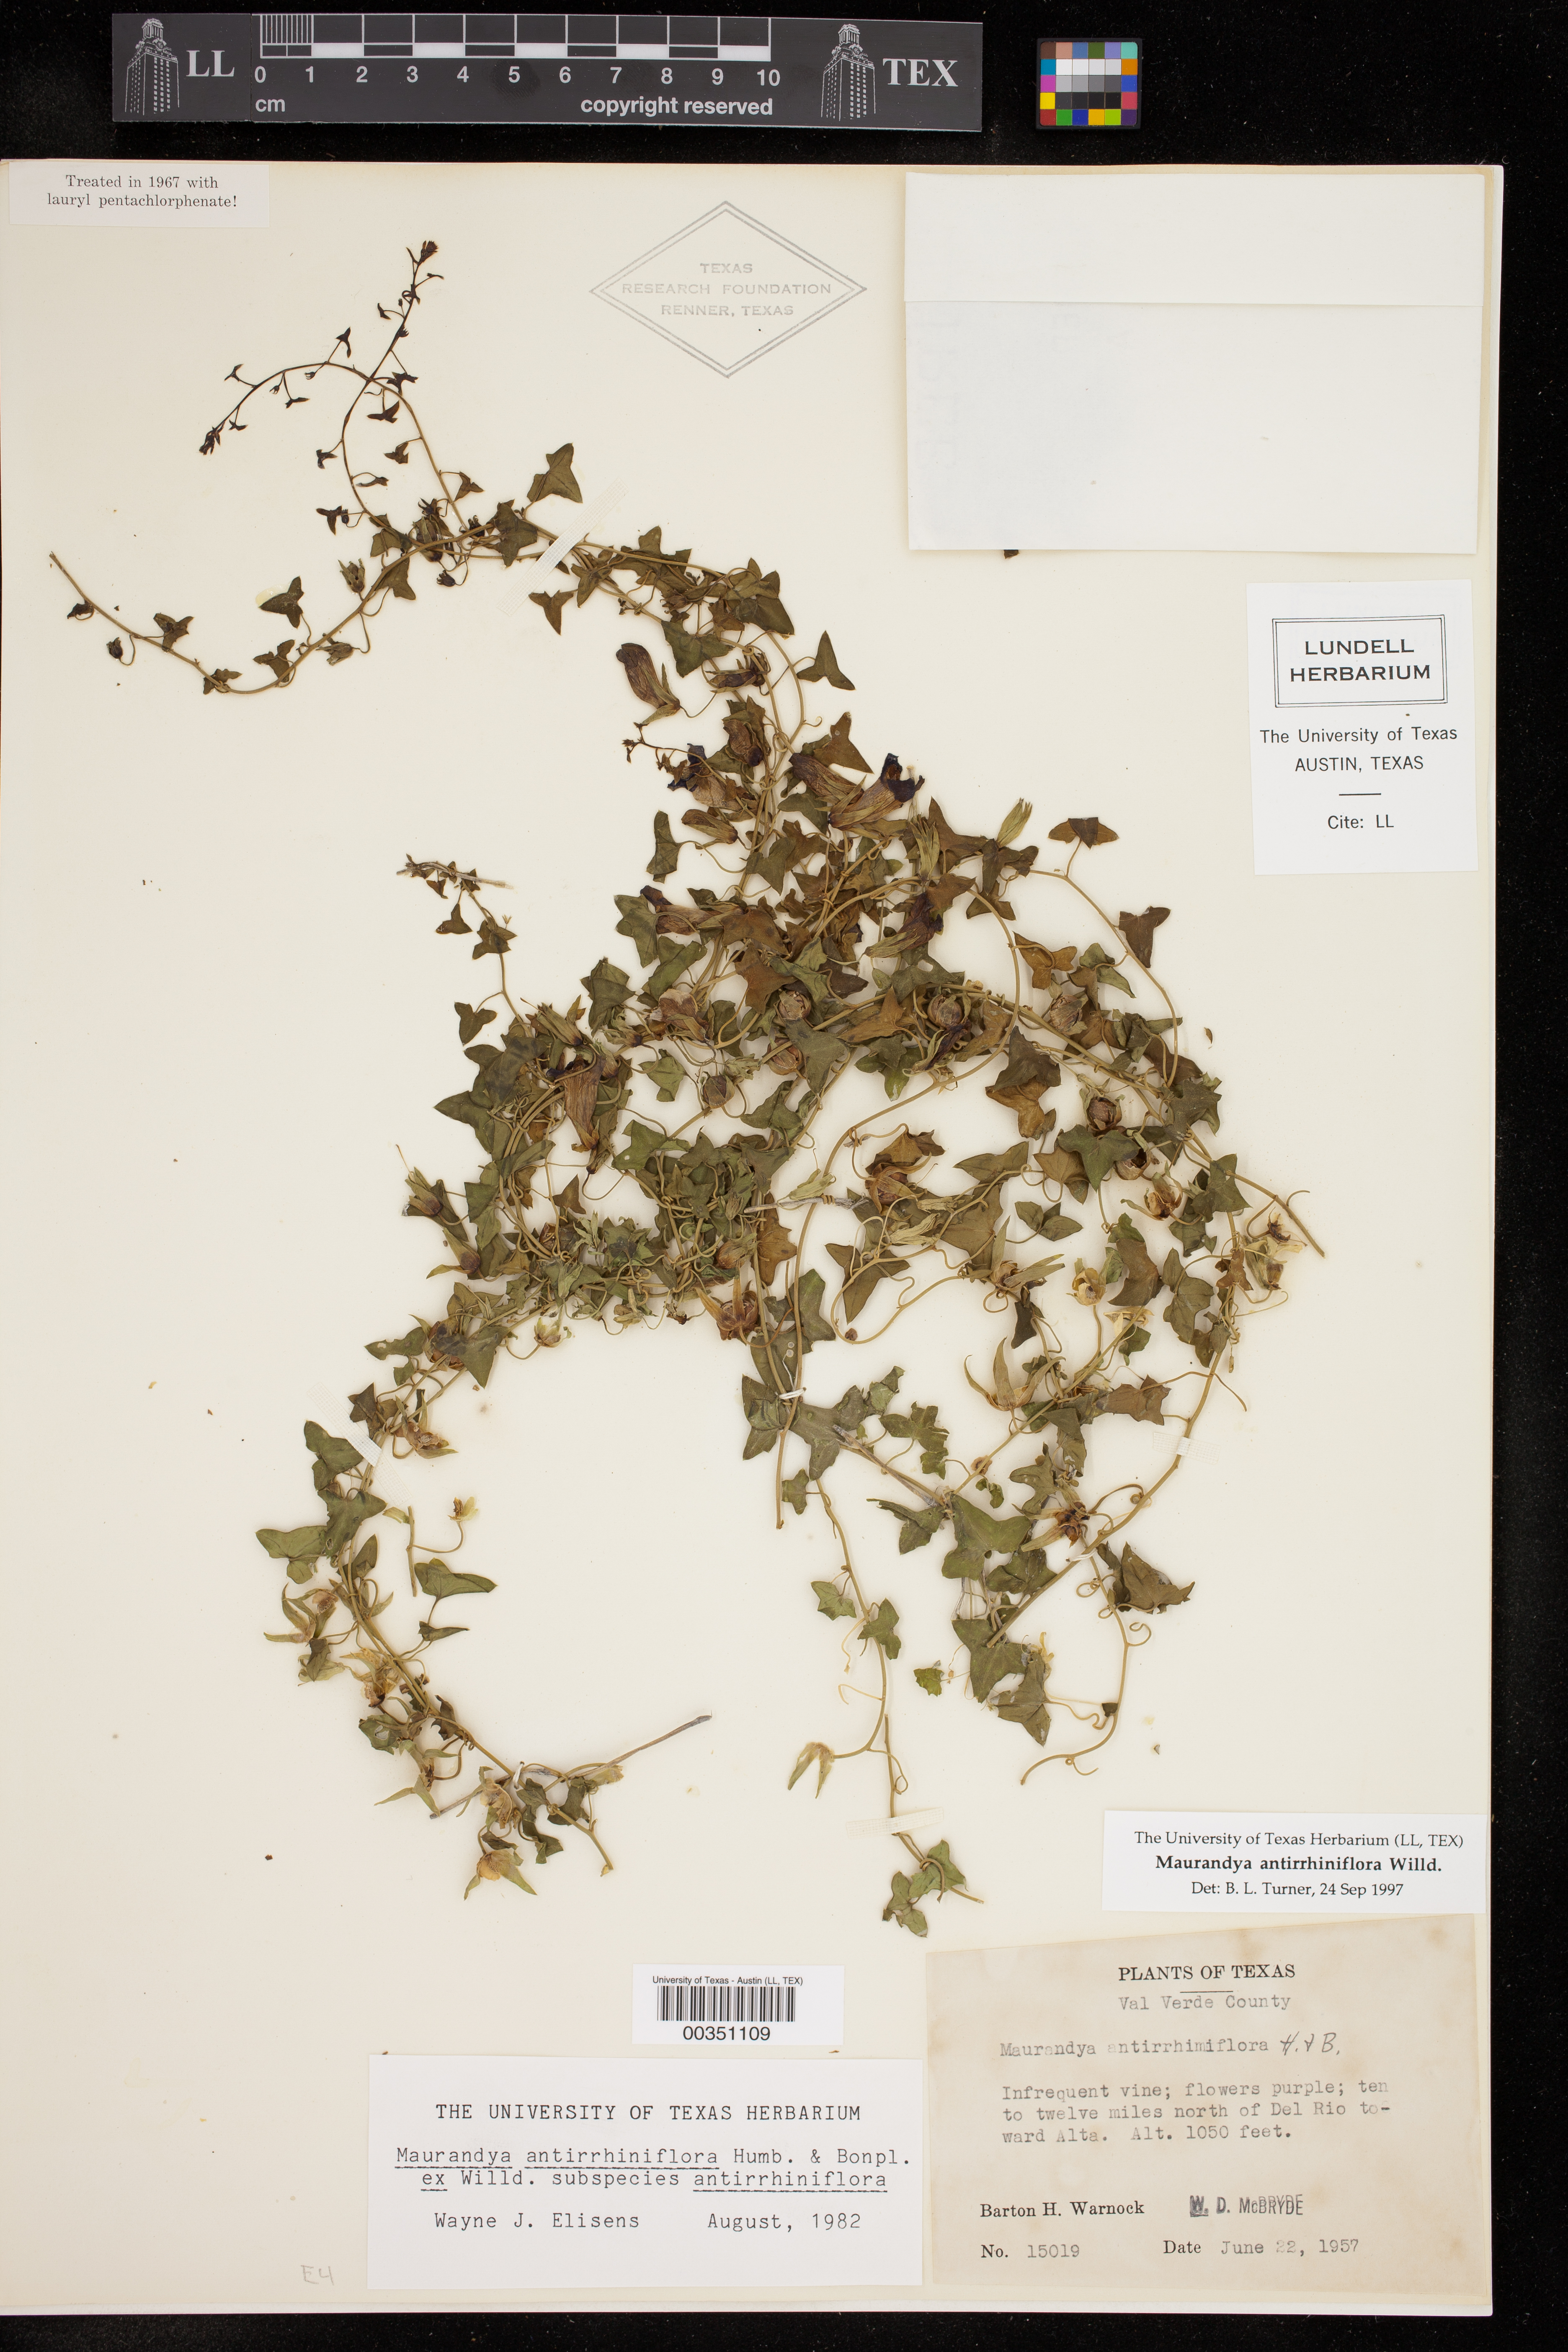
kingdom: Plantae
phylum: Tracheophyta
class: Magnoliopsida
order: Lamiales
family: Plantaginaceae
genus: Maurandella
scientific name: Maurandella antirrhiniflora
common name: Violet twining-snapdragon
